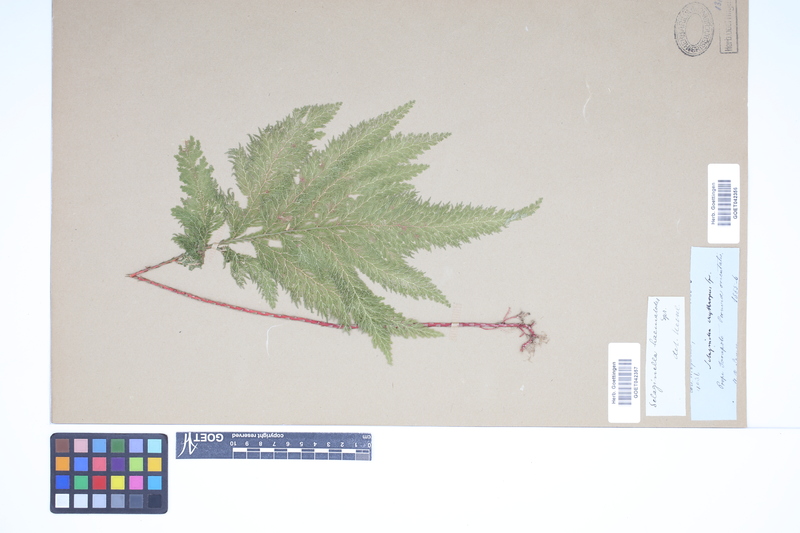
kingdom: Plantae
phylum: Tracheophyta
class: Lycopodiopsida
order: Selaginellales
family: Selaginellaceae
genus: Selaginella
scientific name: Selaginella haematodes
